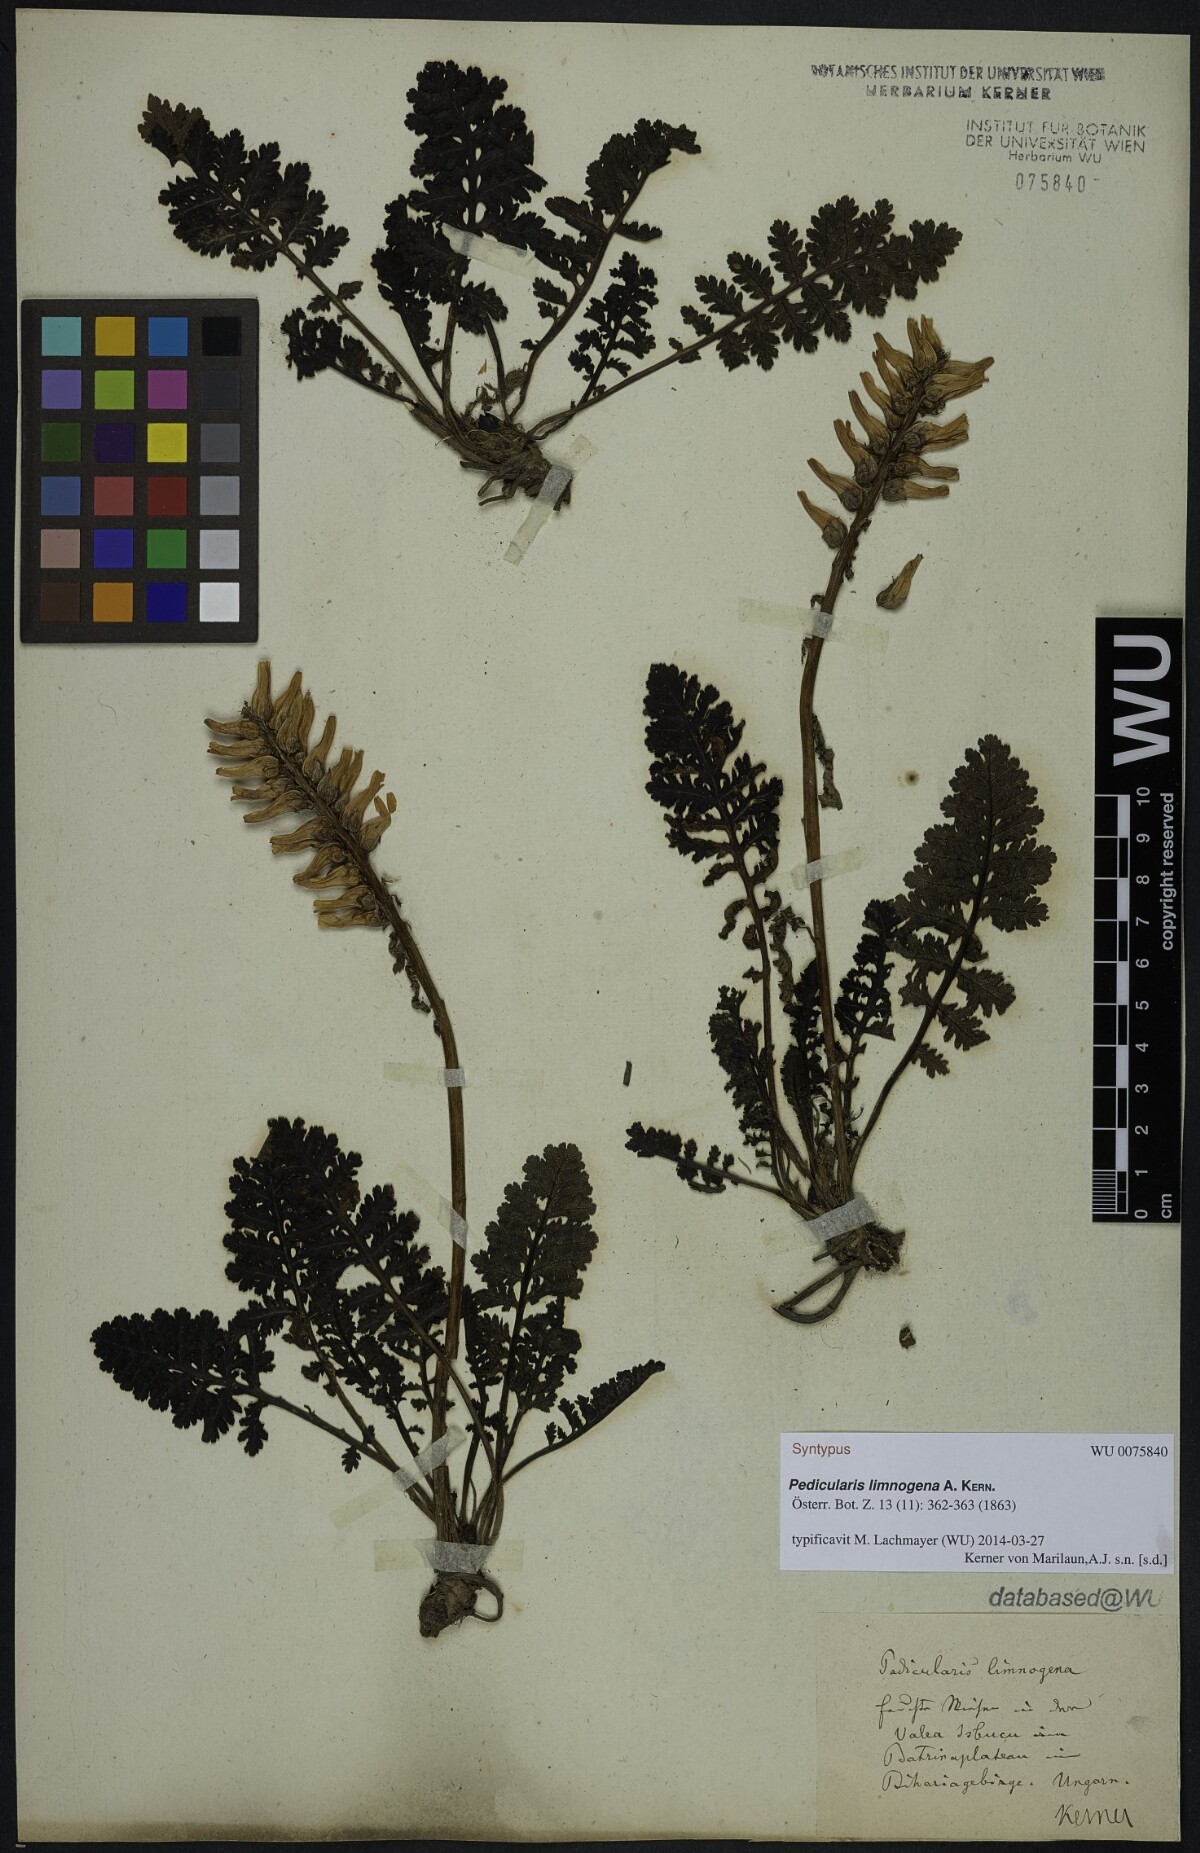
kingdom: Plantae
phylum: Tracheophyta
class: Magnoliopsida
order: Lamiales
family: Orobanchaceae
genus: Pedicularis
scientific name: Pedicularis olympica
